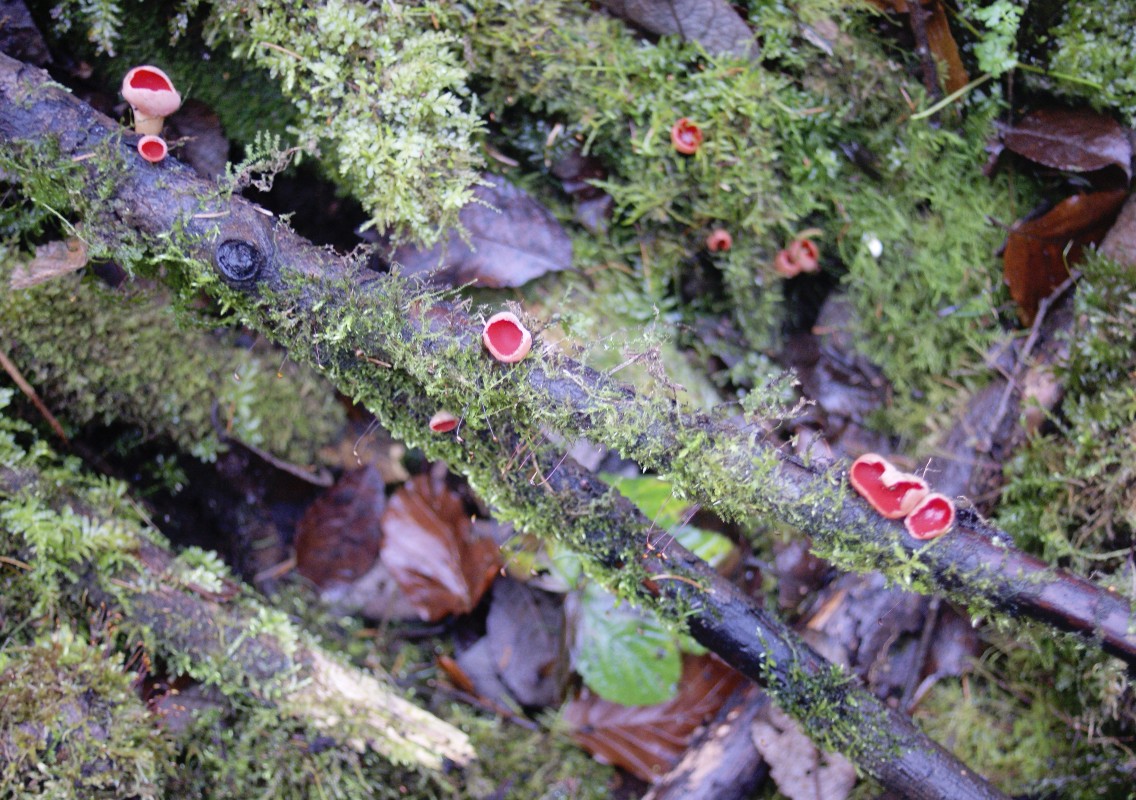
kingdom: Fungi
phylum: Ascomycota
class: Pezizomycetes
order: Pezizales
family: Sarcoscyphaceae
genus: Sarcoscypha
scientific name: Sarcoscypha austriaca
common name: krølhåret pragtbæger
